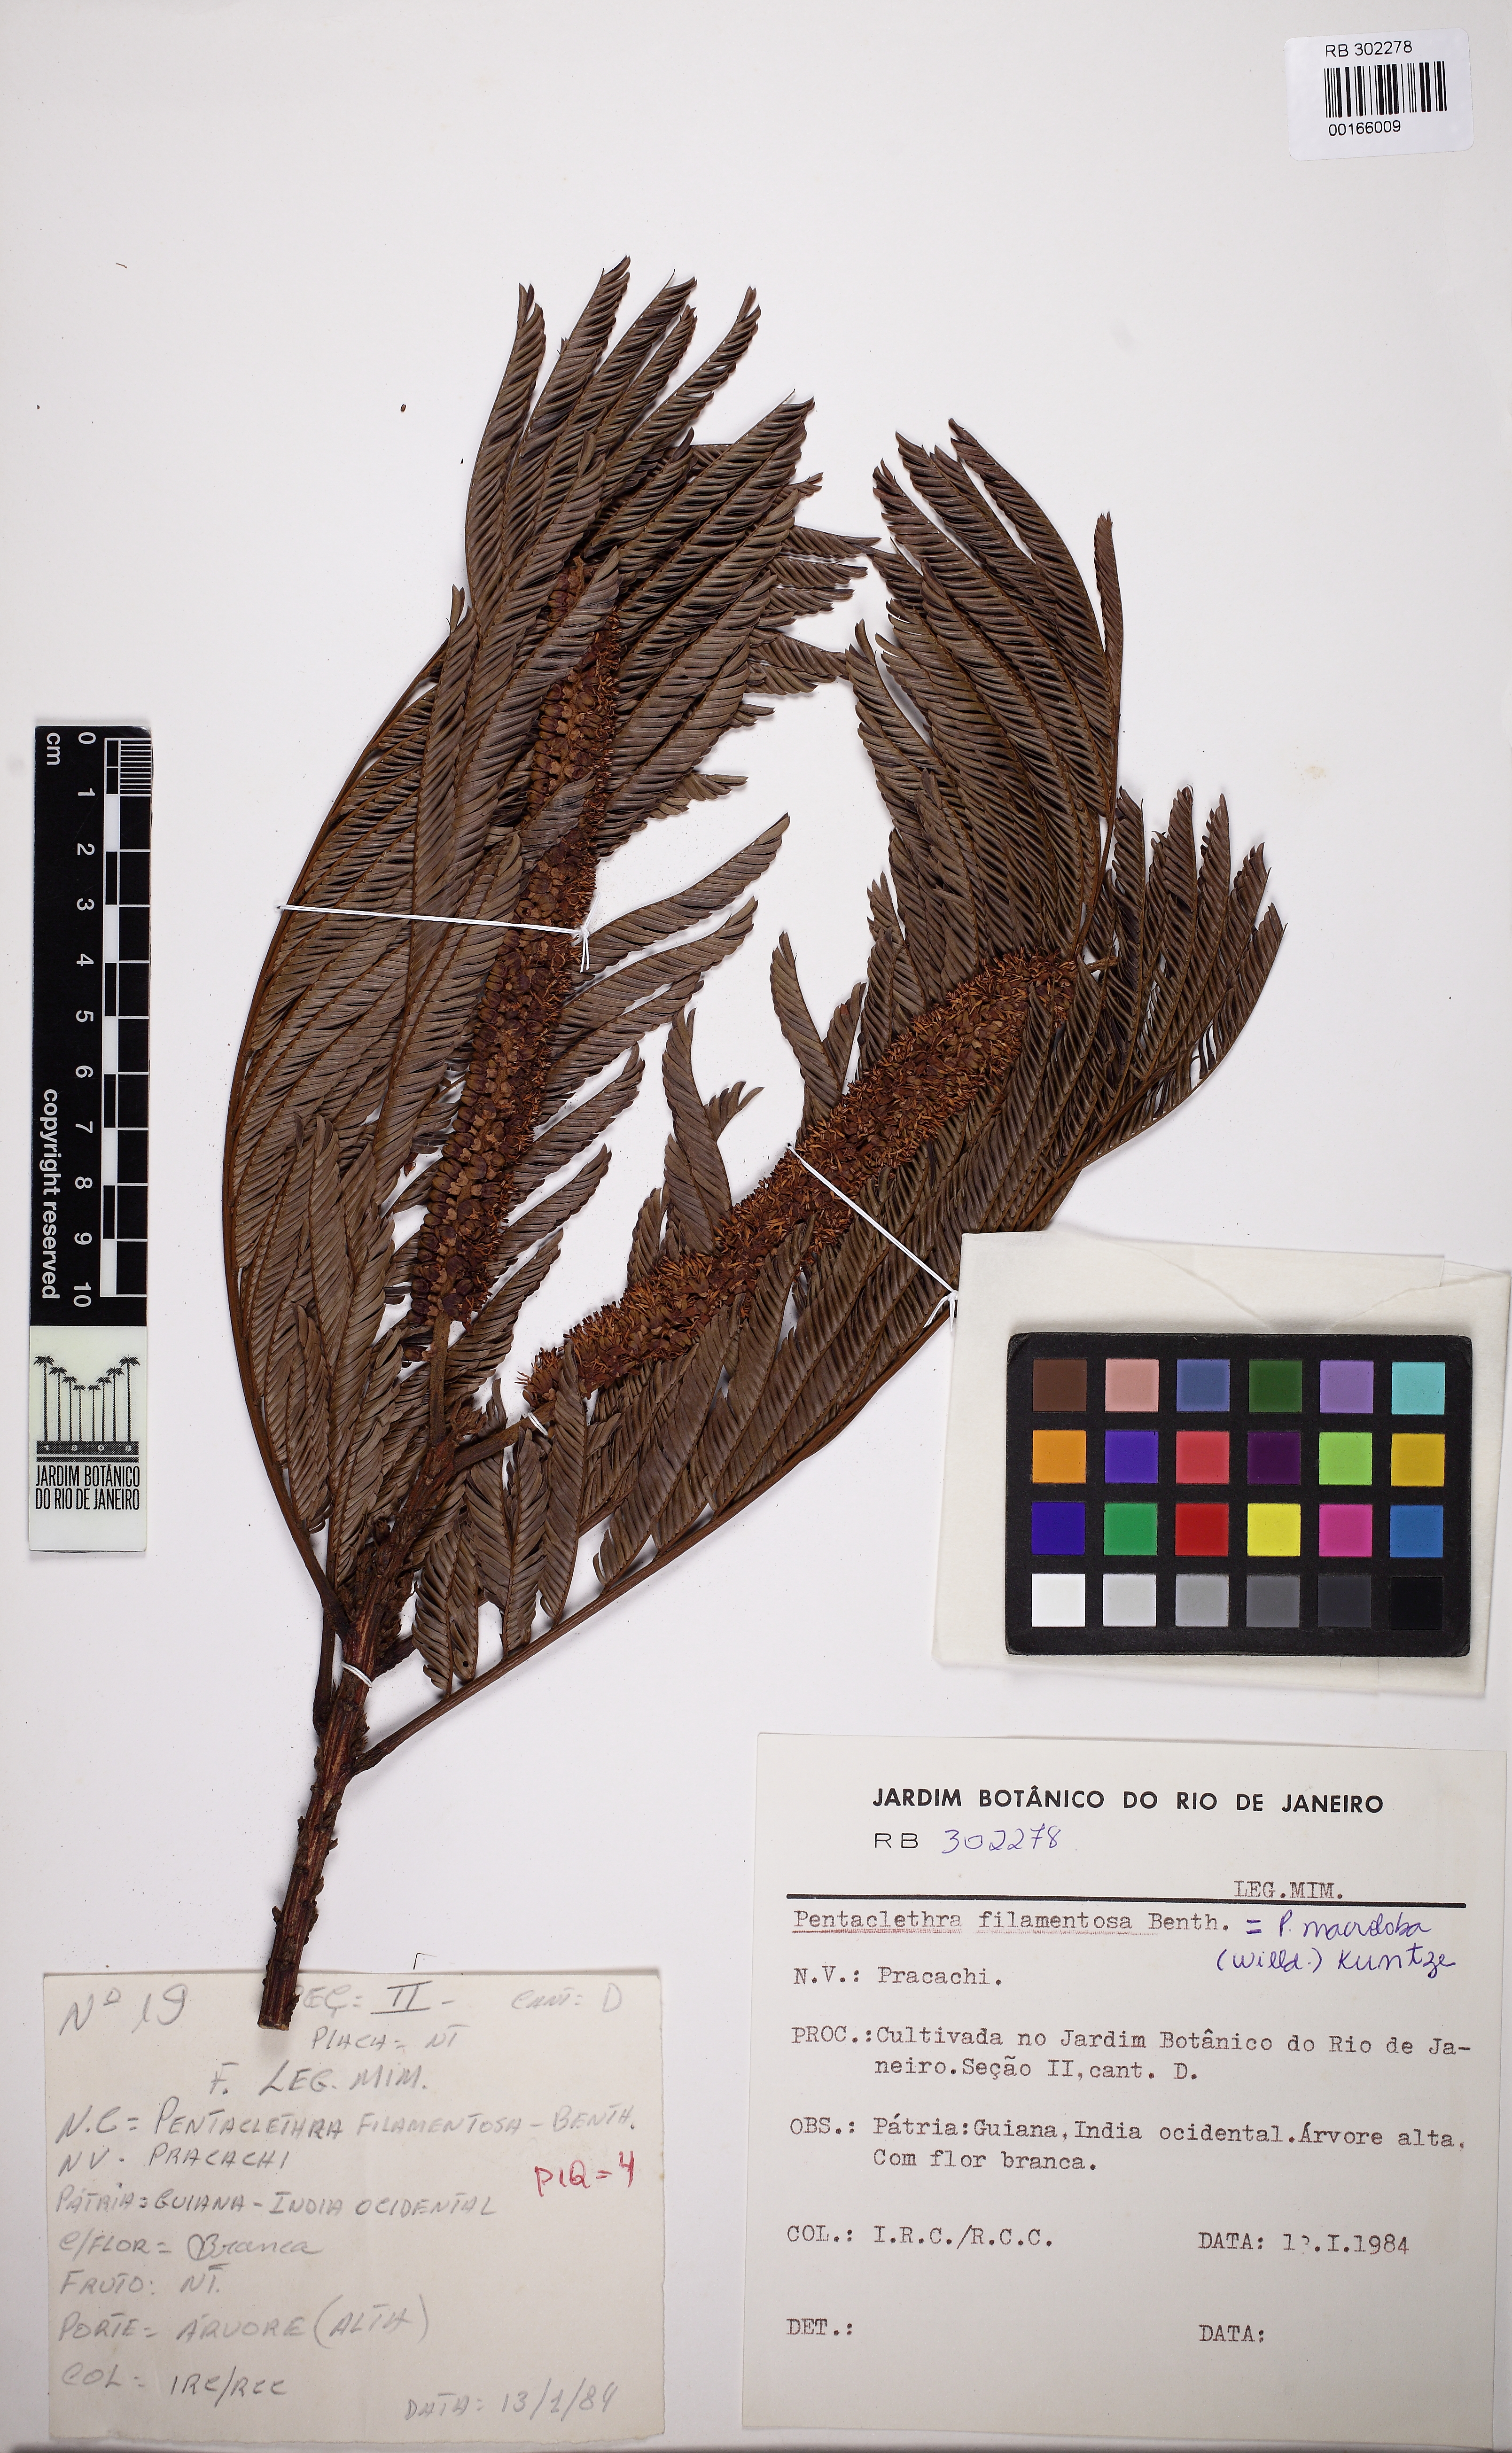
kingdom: Plantae
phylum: Tracheophyta
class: Magnoliopsida
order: Fabales
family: Fabaceae
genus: Pentaclethra
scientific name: Pentaclethra macroloba
